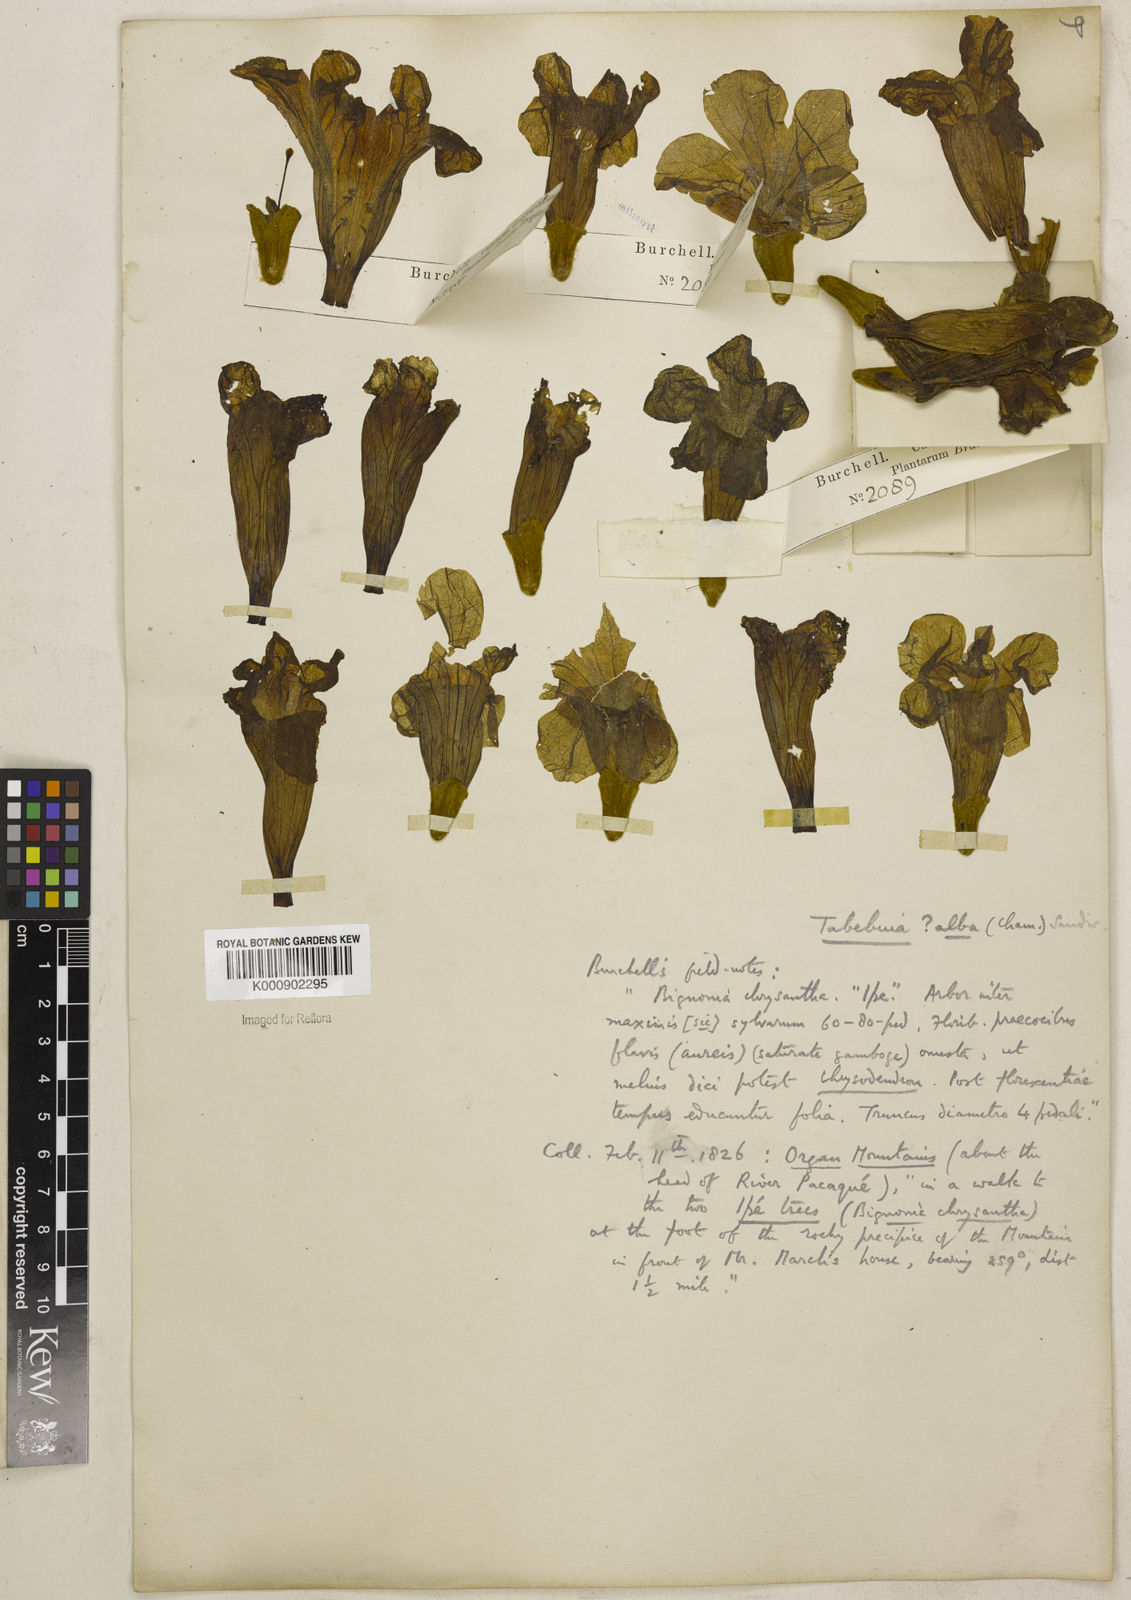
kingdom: Plantae
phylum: Tracheophyta
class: Magnoliopsida
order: Lamiales
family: Bignoniaceae
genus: Handroanthus
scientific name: Handroanthus albus
